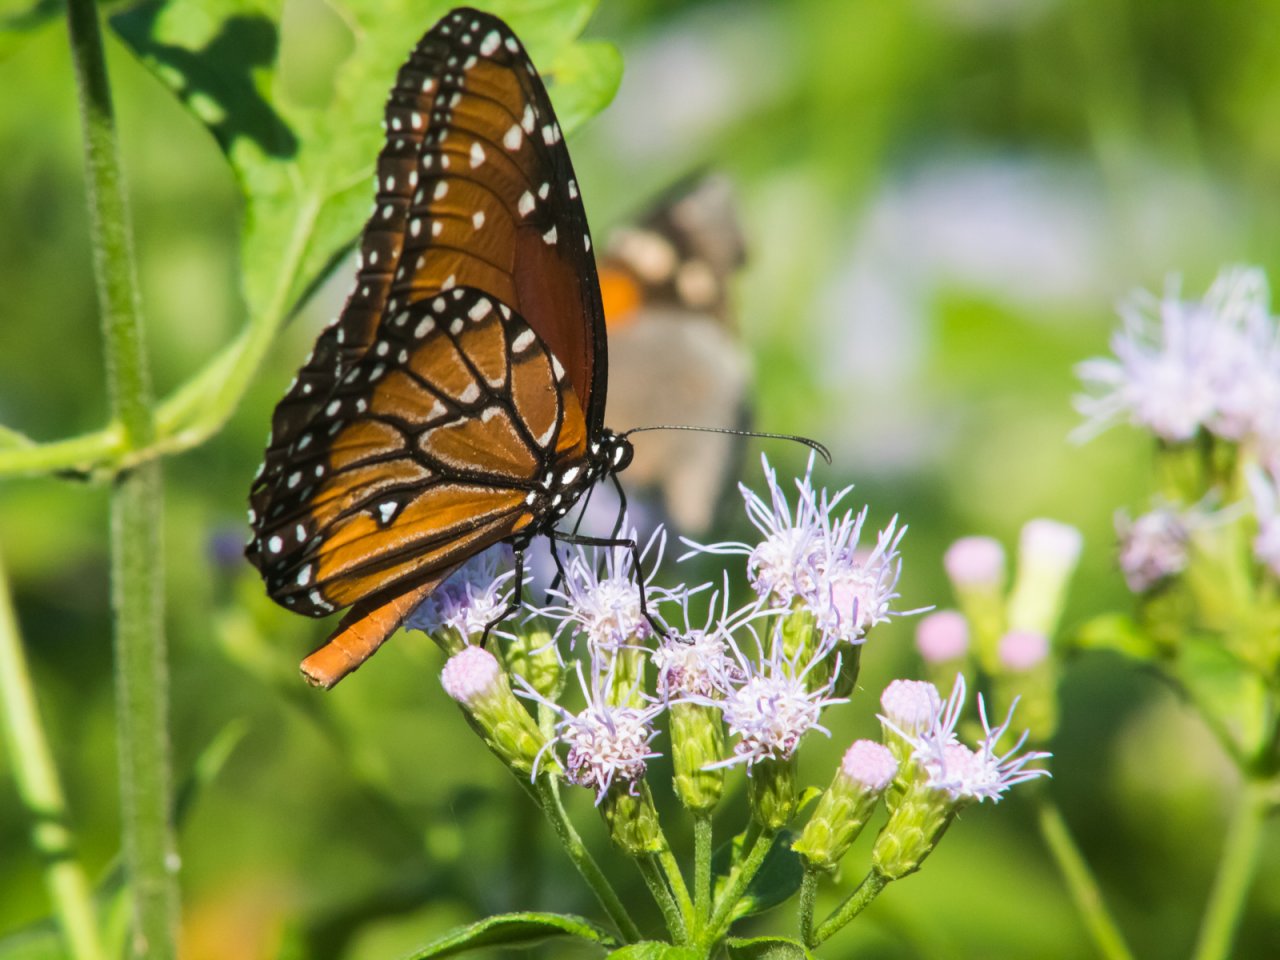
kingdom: Animalia
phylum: Arthropoda
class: Insecta
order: Lepidoptera
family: Nymphalidae
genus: Danaus
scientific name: Danaus gilippus
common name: Queen
